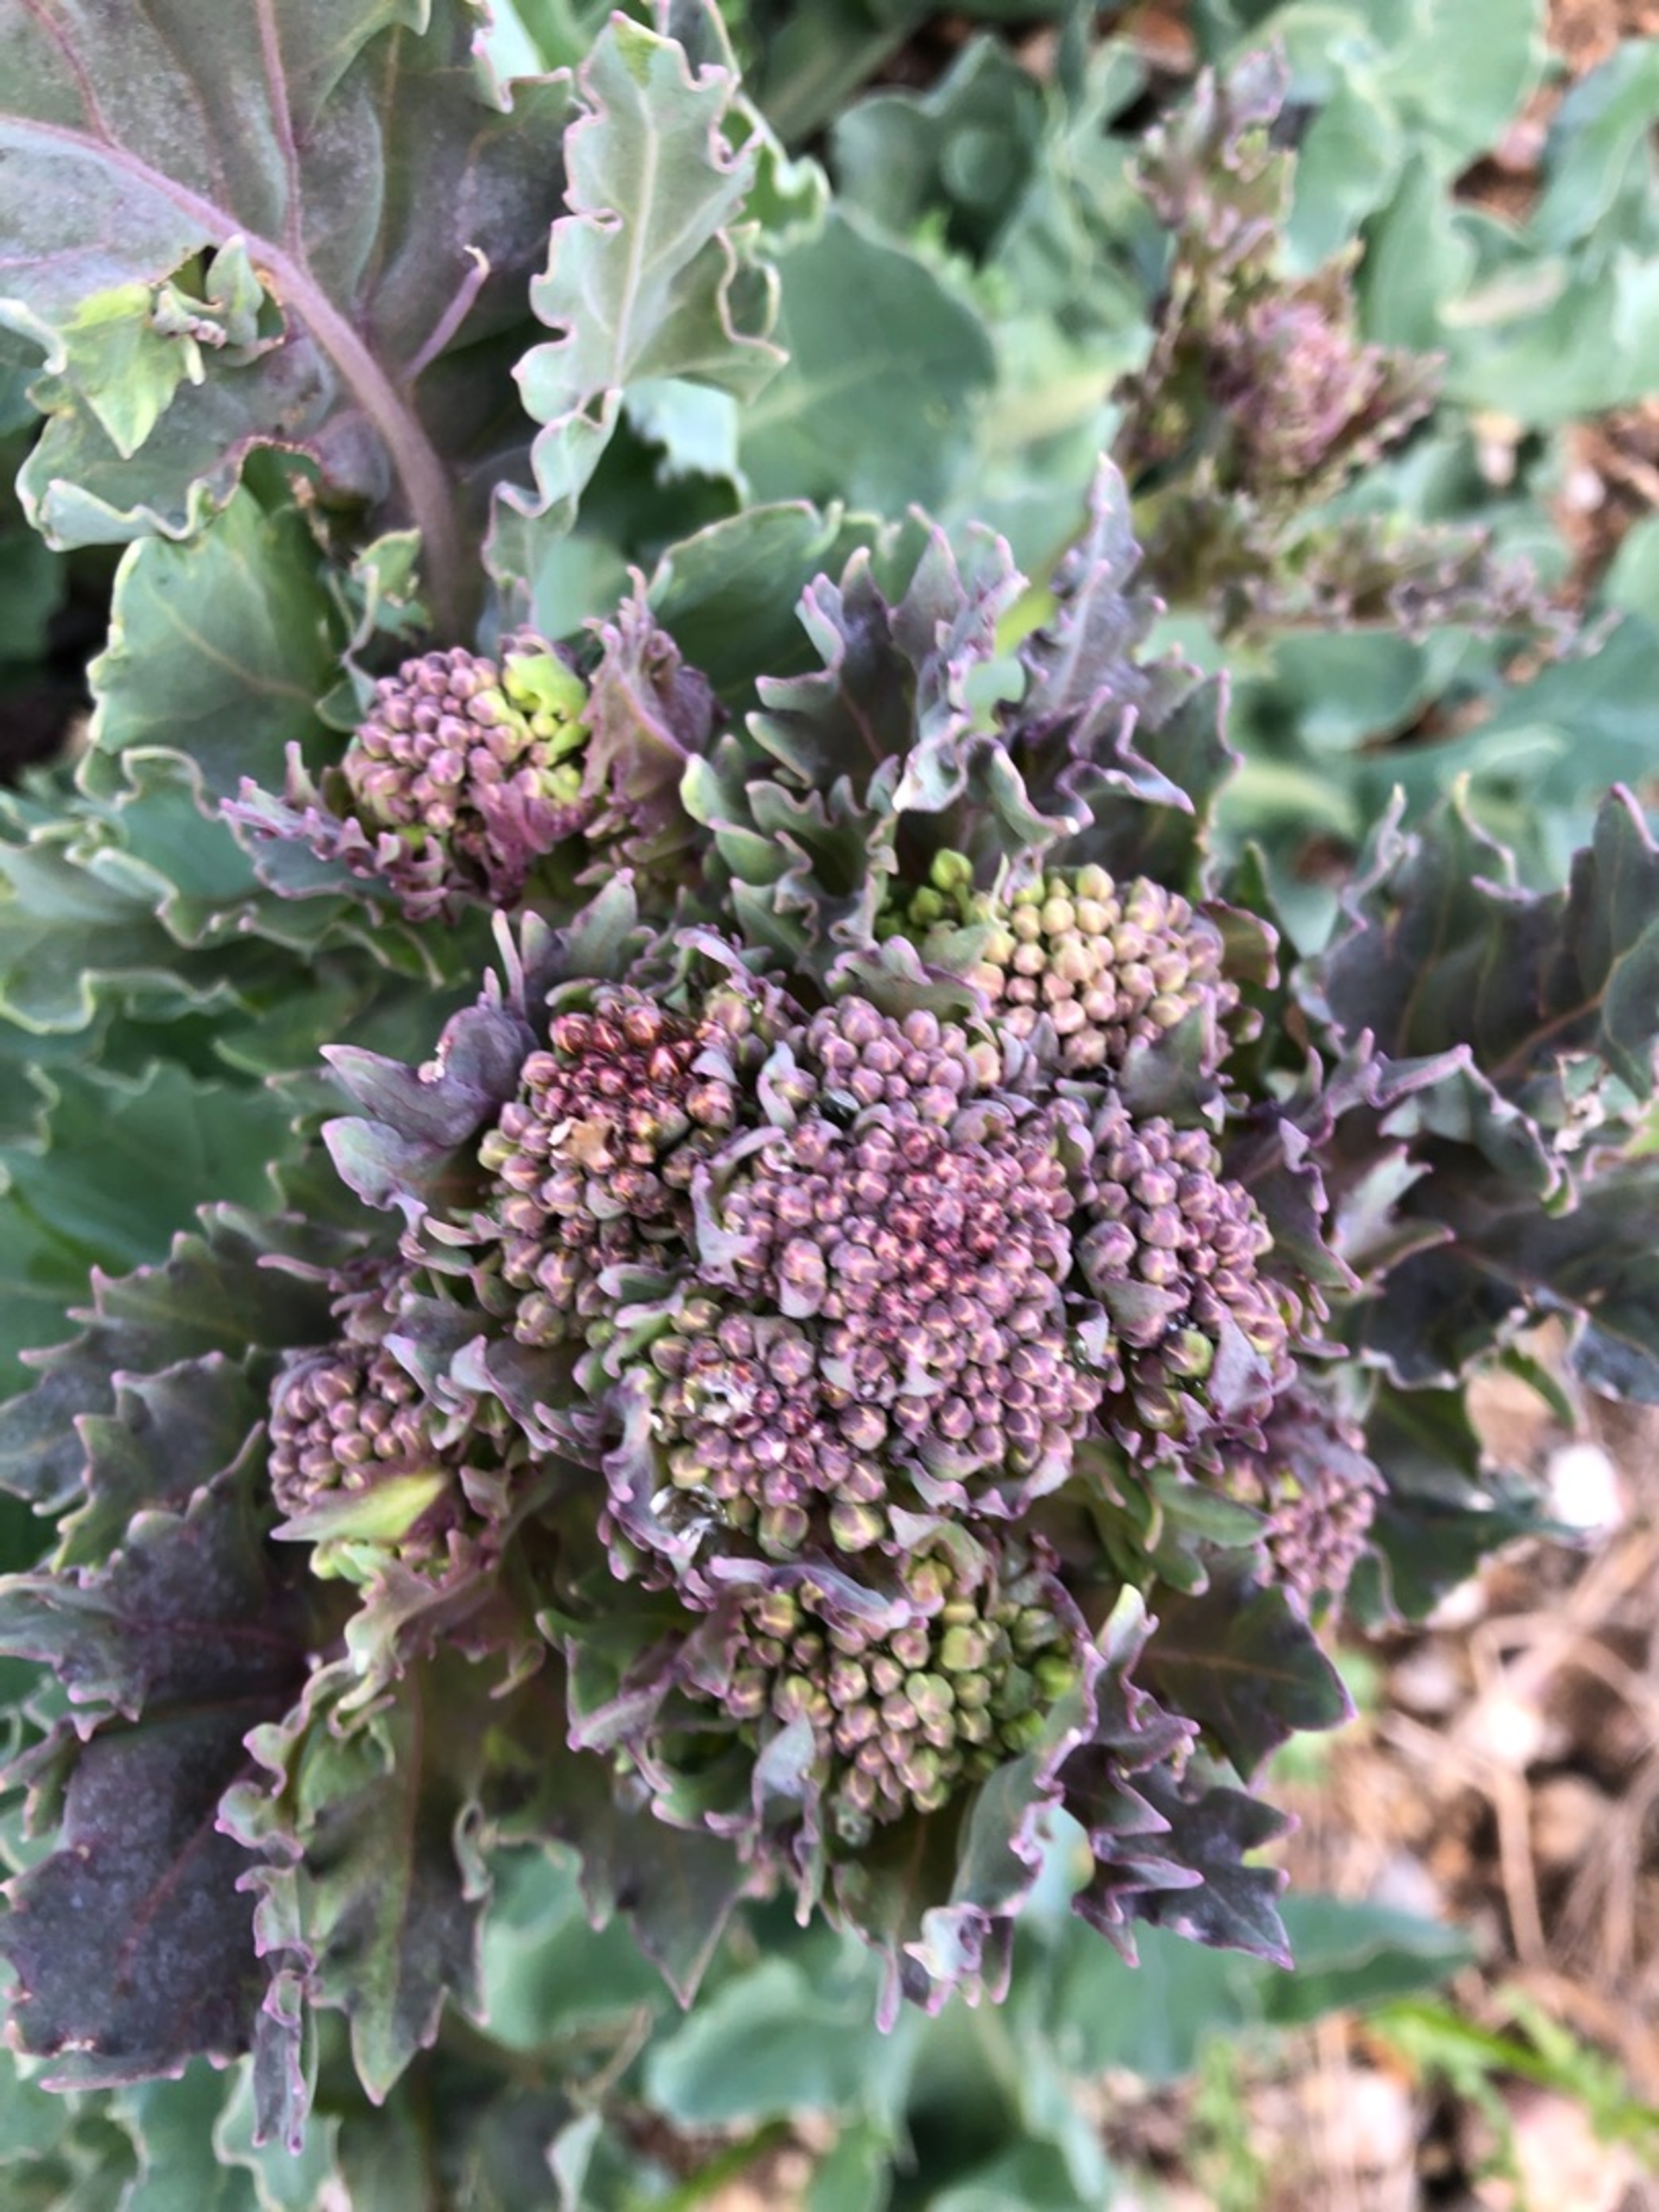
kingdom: Plantae
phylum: Tracheophyta
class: Magnoliopsida
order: Brassicales
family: Brassicaceae
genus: Crambe
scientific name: Crambe maritima
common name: Strandkål
